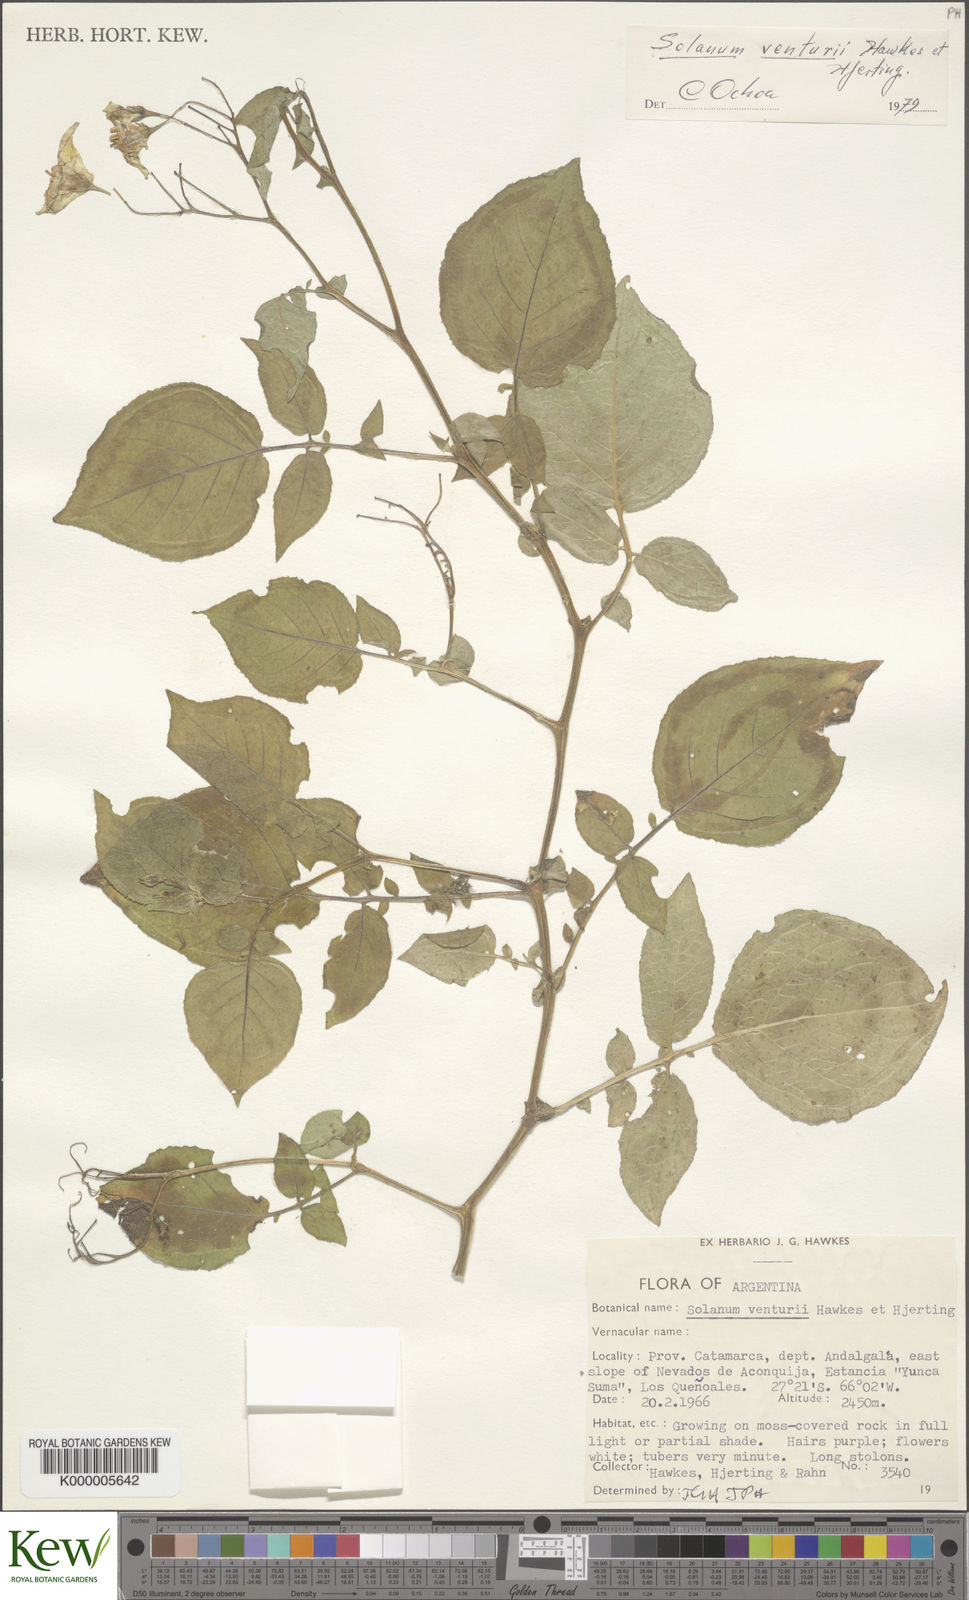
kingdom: Plantae
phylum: Tracheophyta
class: Magnoliopsida
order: Solanales
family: Solanaceae
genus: Solanum
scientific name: Solanum venturii
